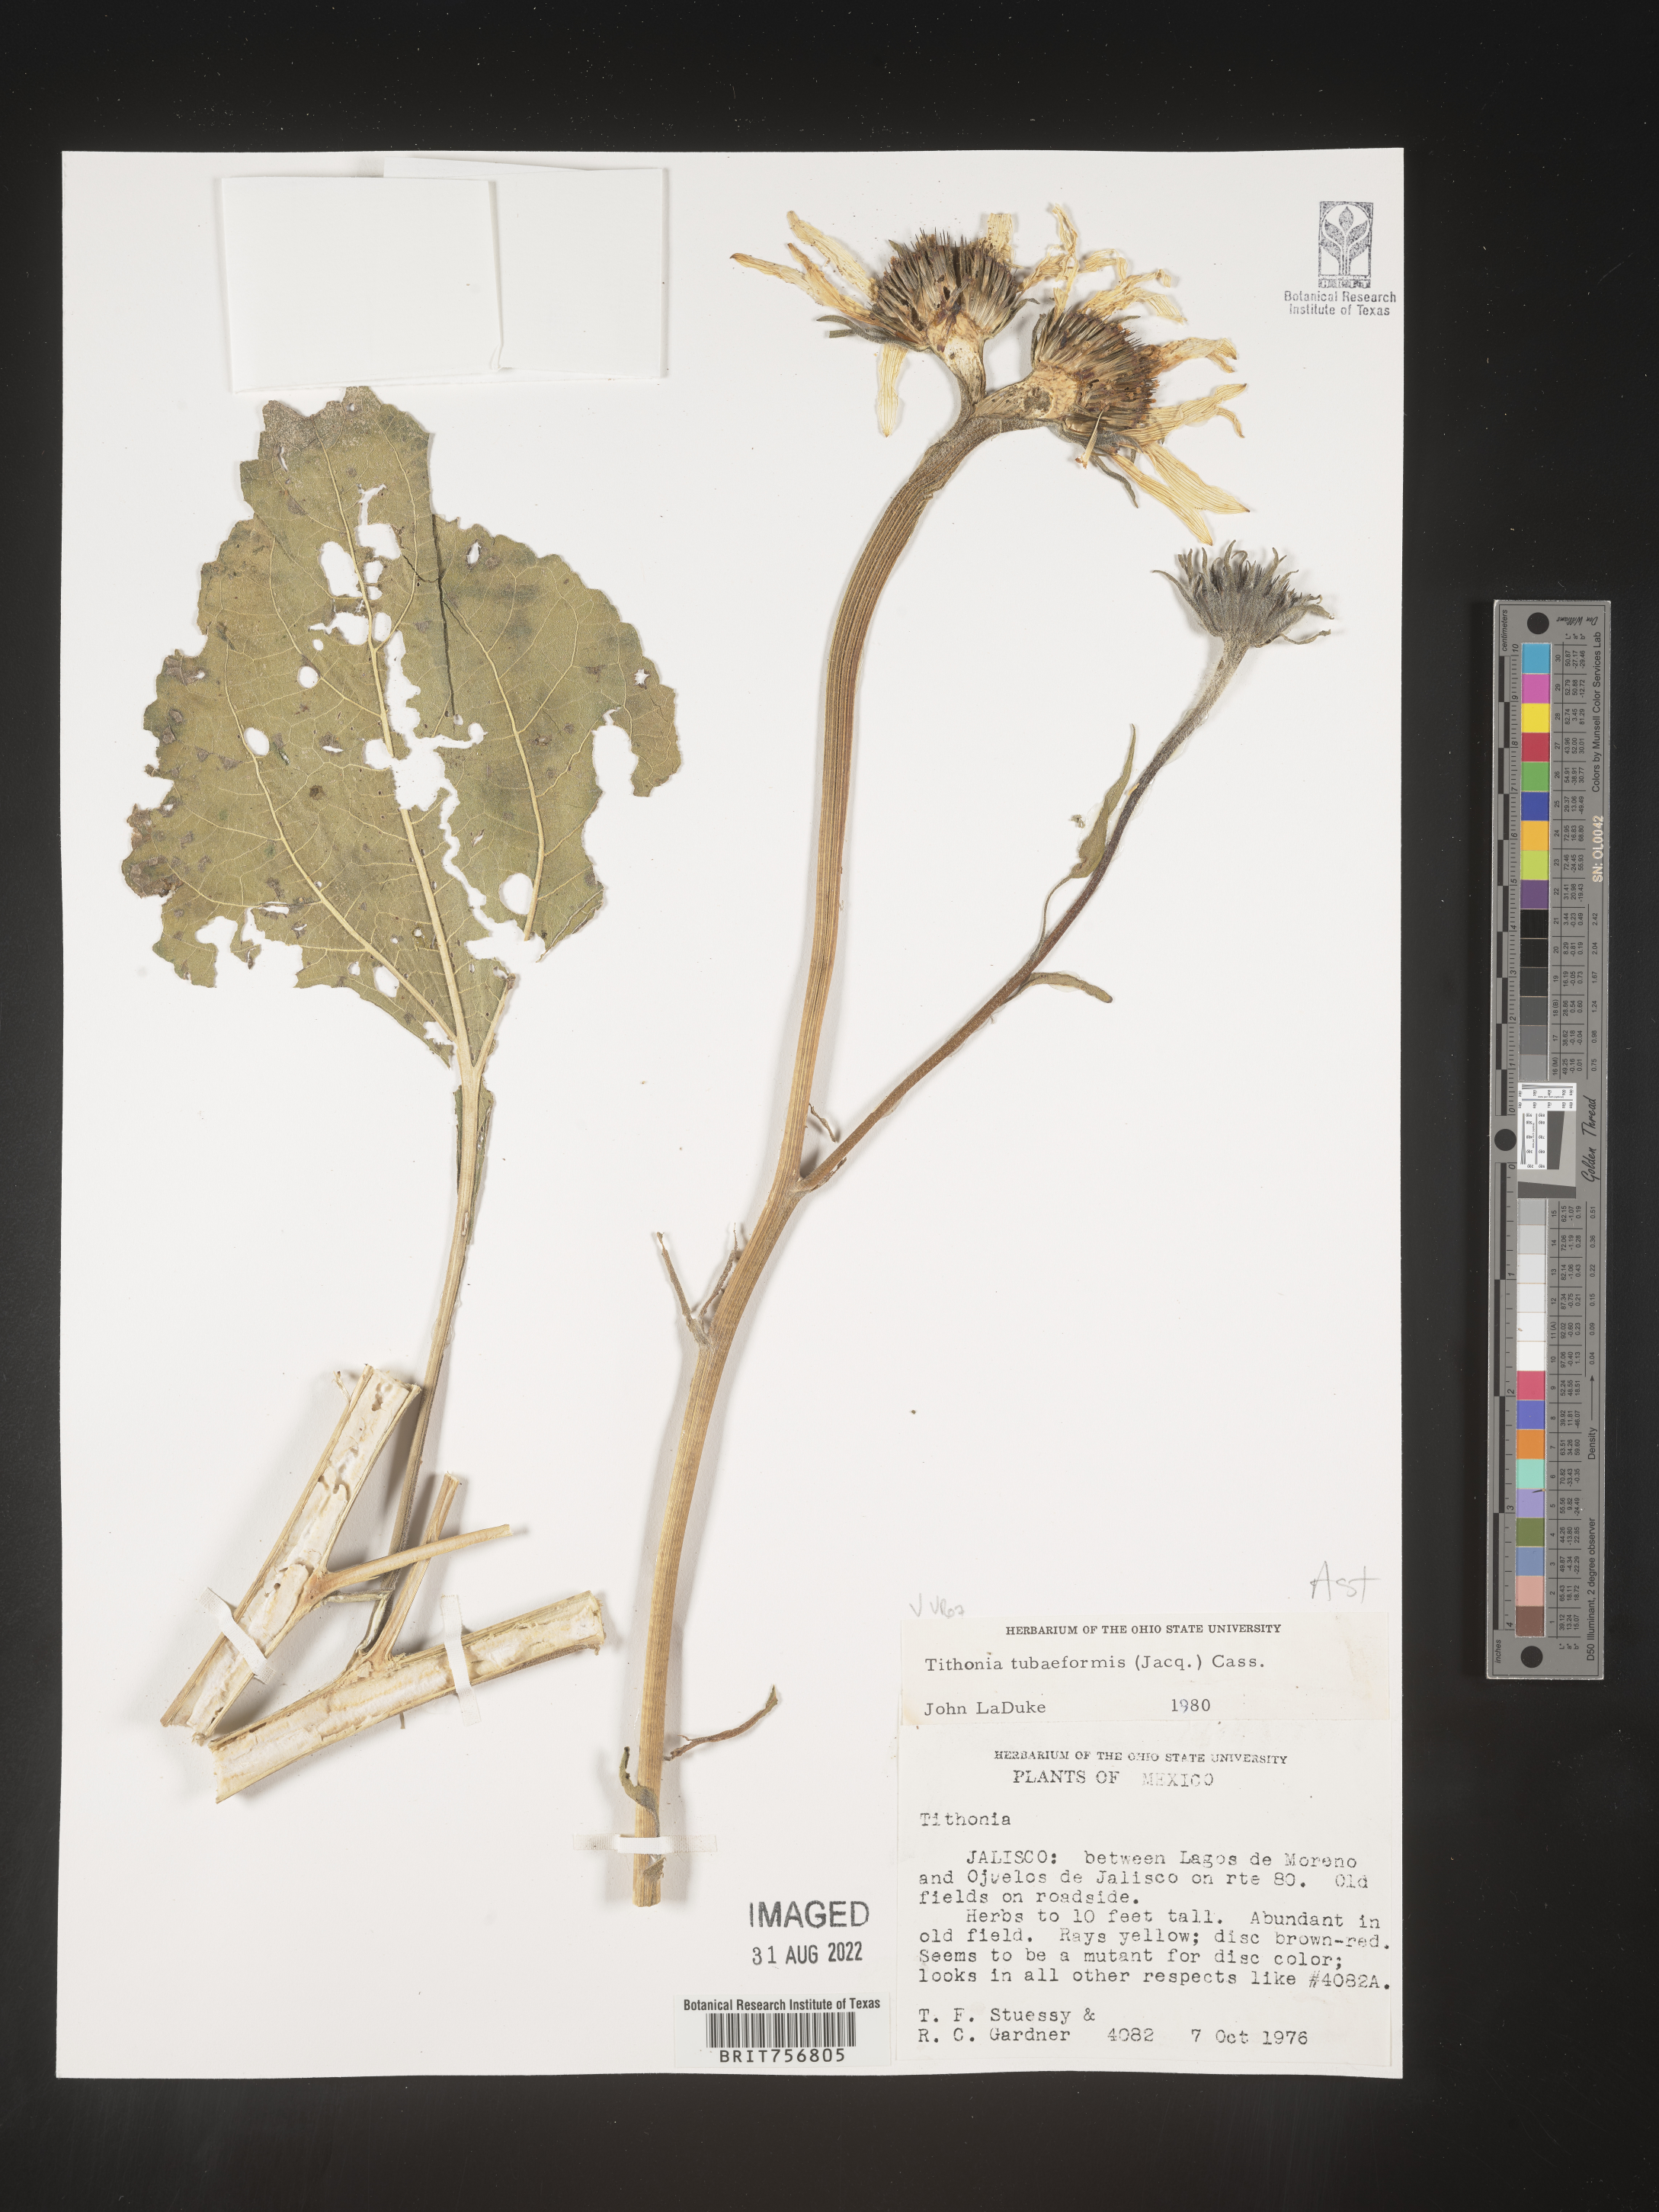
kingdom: Plantae
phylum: Tracheophyta
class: Magnoliopsida
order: Asterales
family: Asteraceae
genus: Tithonia
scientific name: Tithonia
